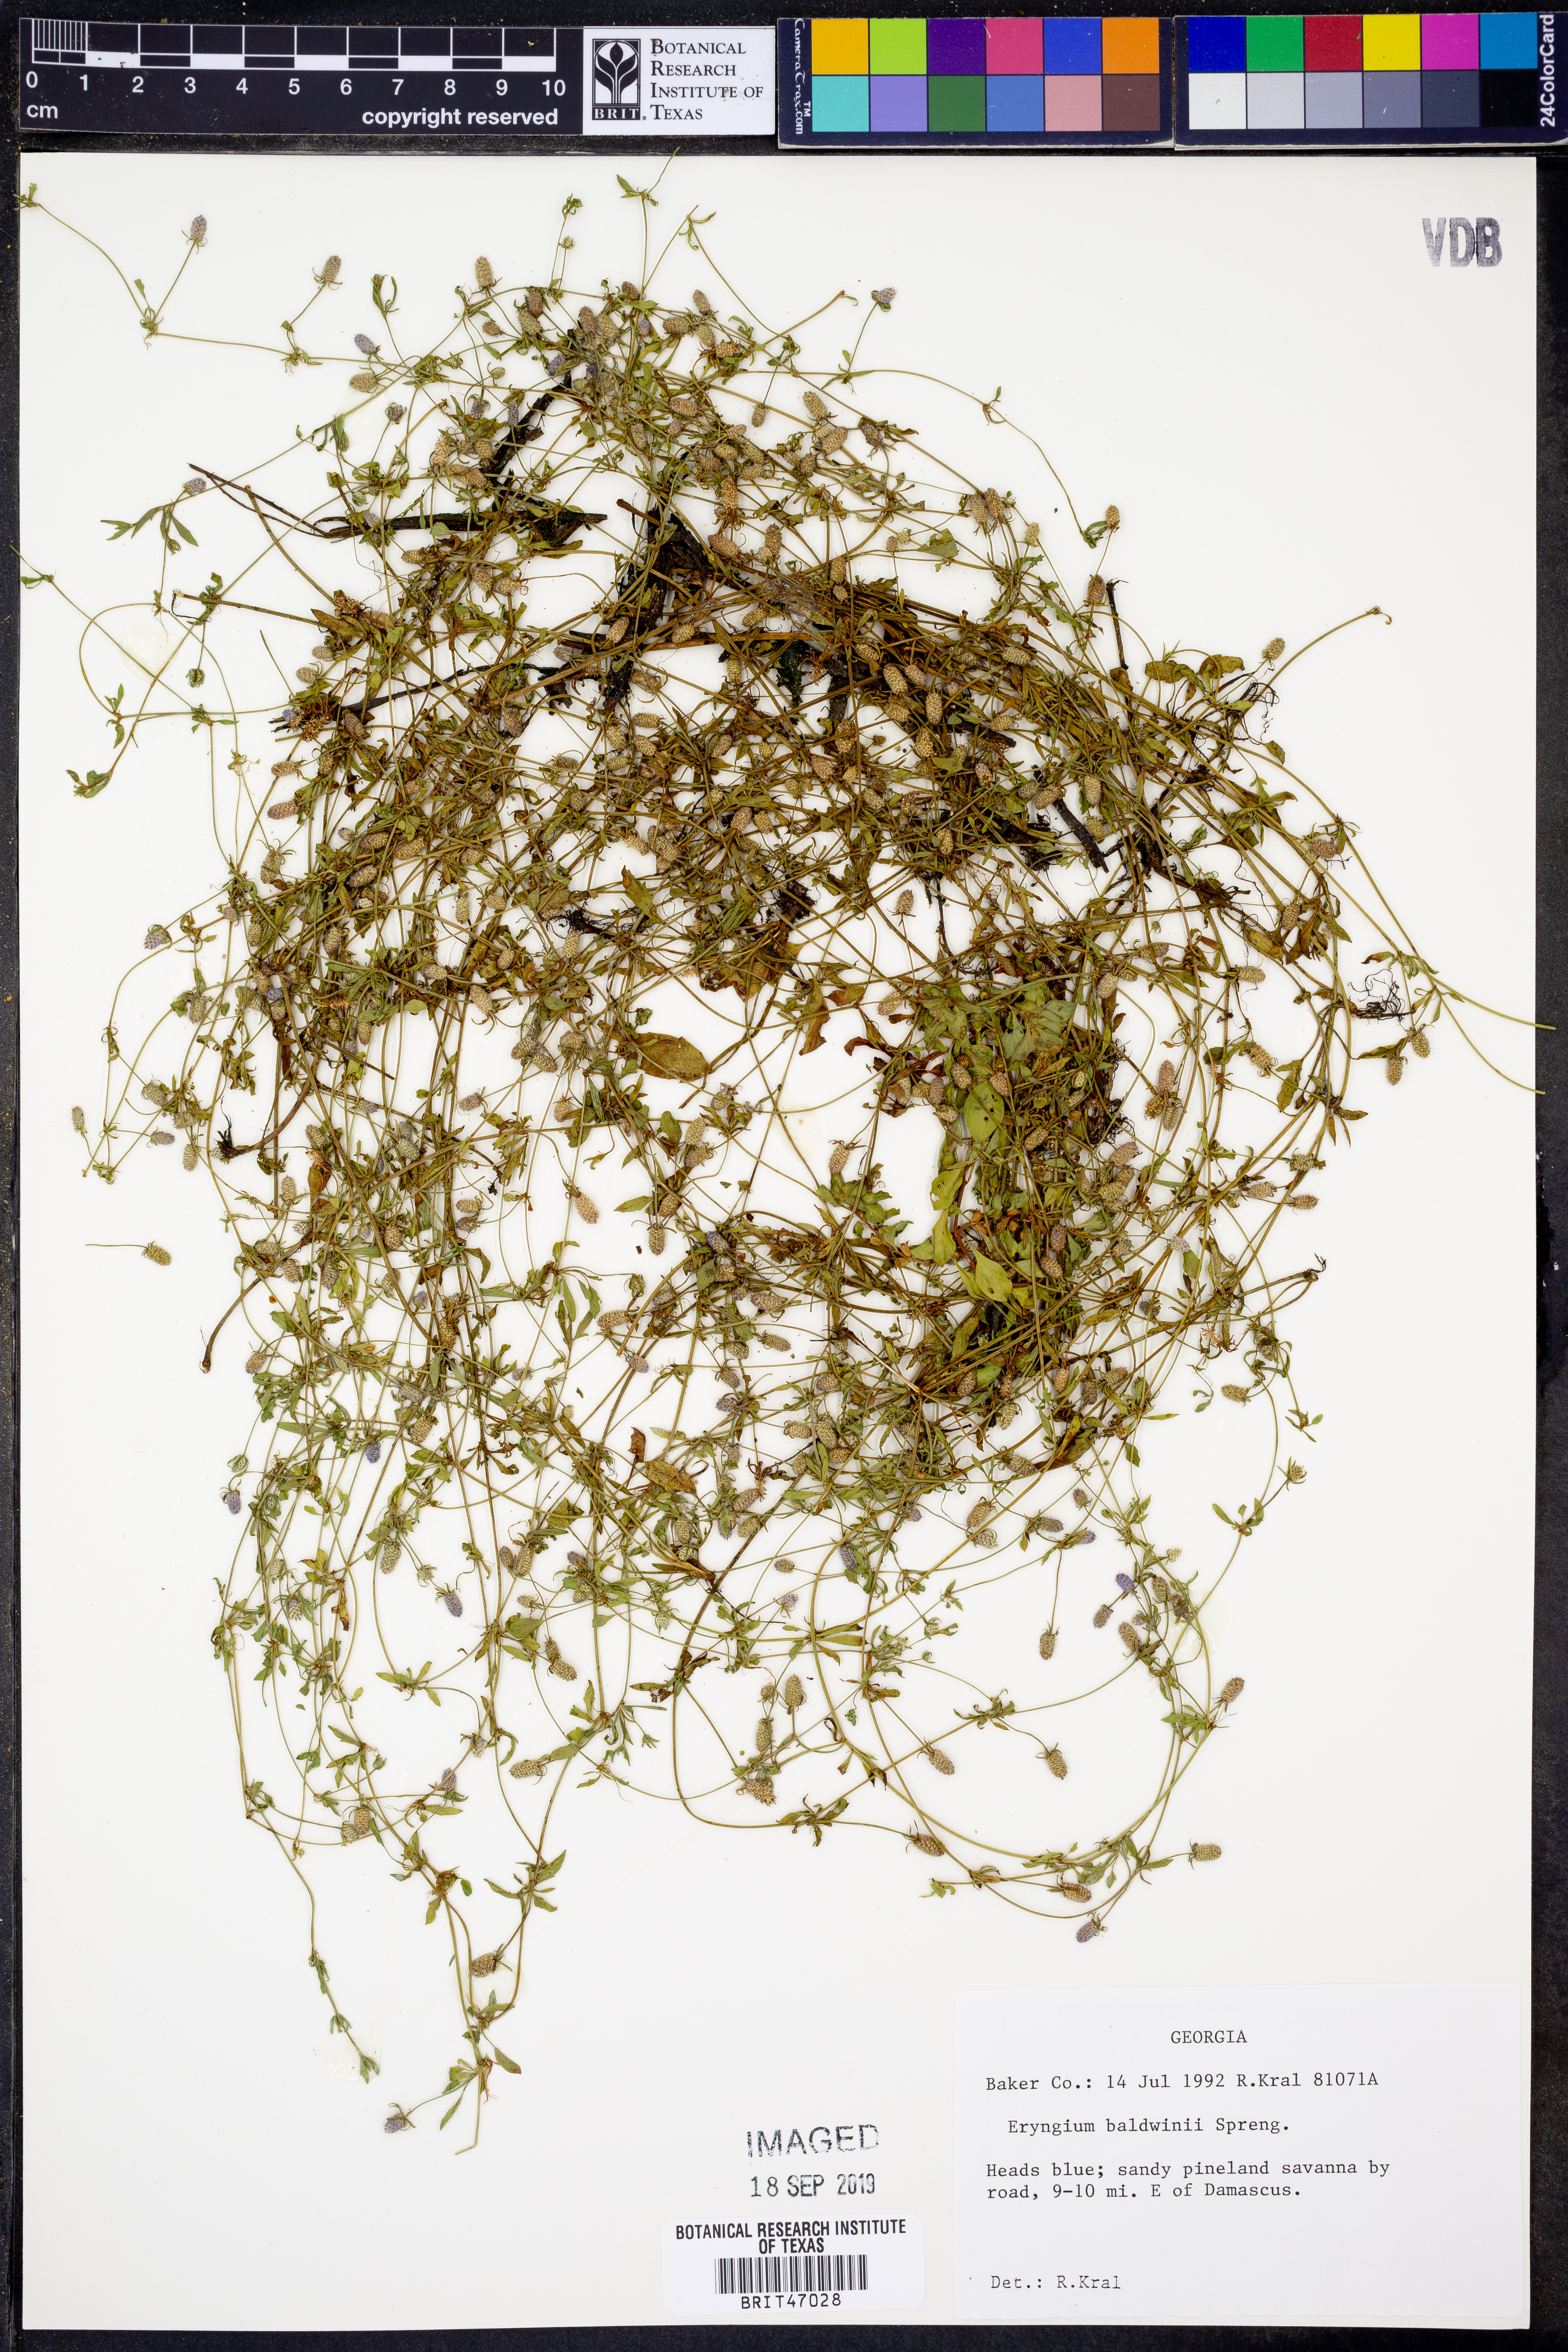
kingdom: Plantae
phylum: Tracheophyta
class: Magnoliopsida
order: Apiales
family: Apiaceae
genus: Eryngium
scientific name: Eryngium baldwinii
